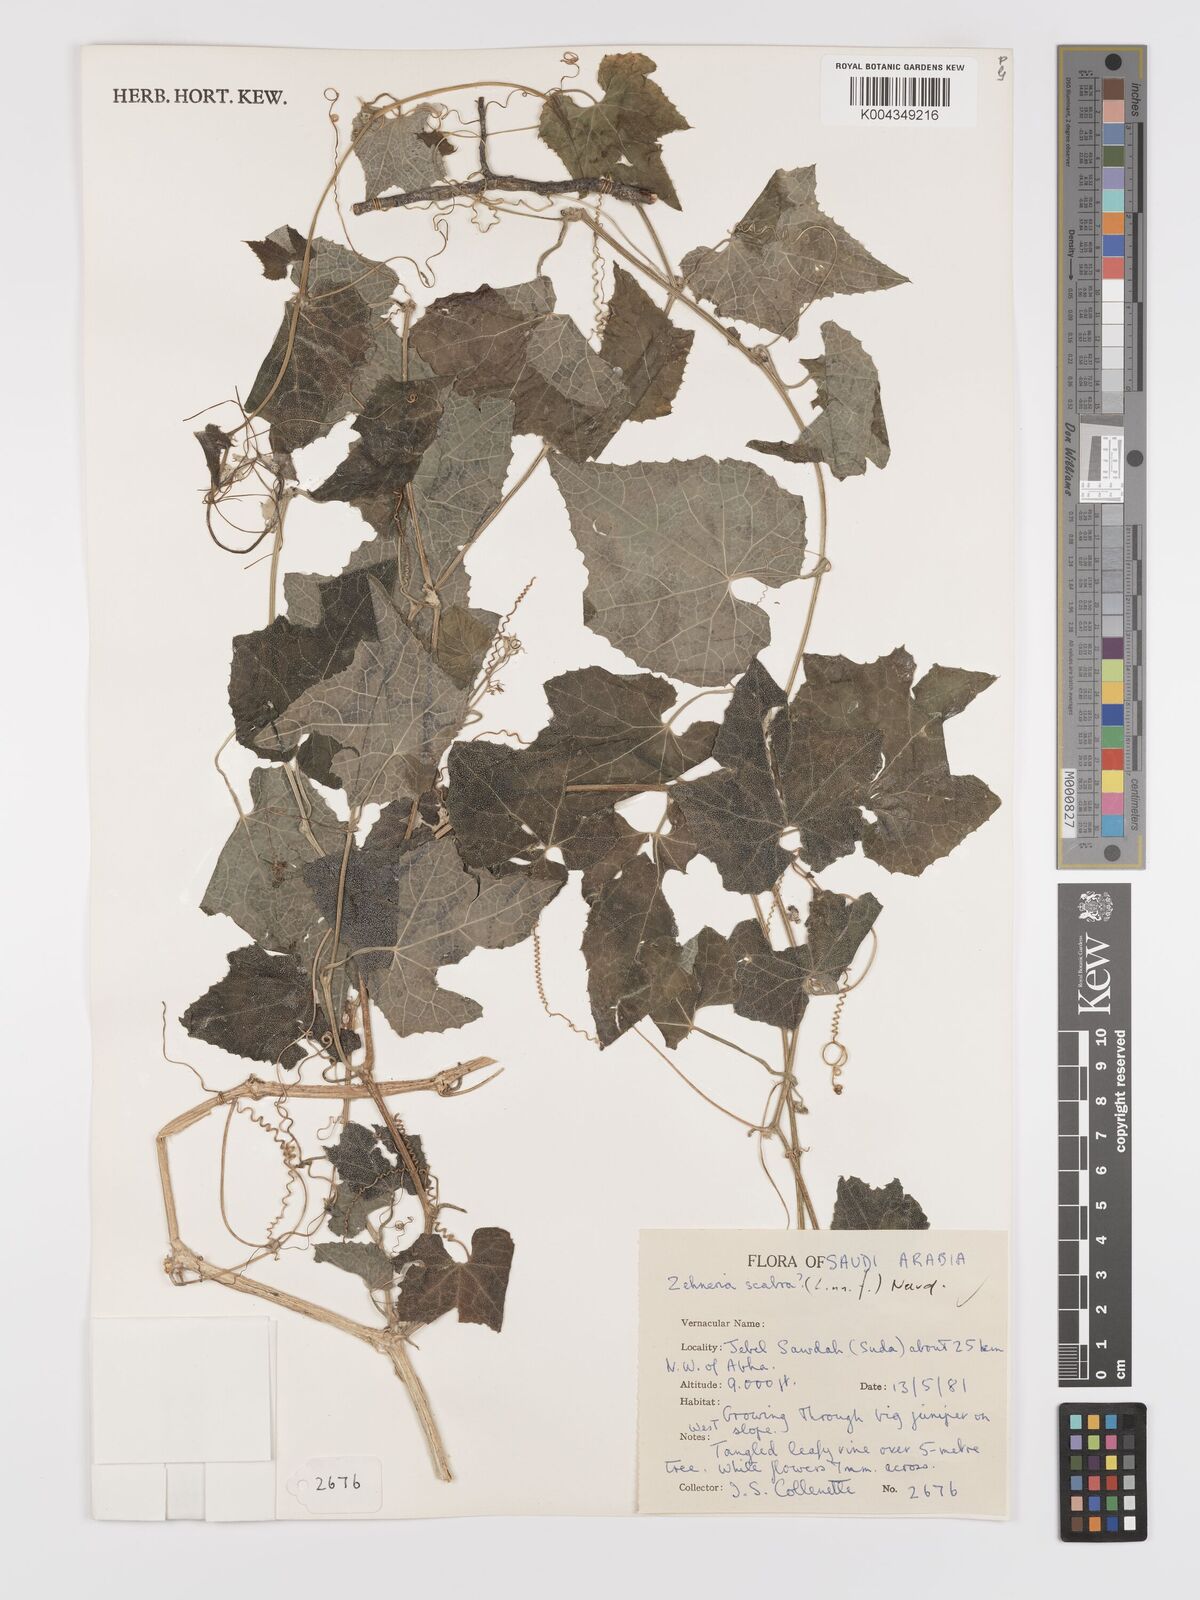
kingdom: Plantae
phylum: Tracheophyta
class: Magnoliopsida
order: Cucurbitales
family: Cucurbitaceae
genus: Zehneria
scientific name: Zehneria scabra
